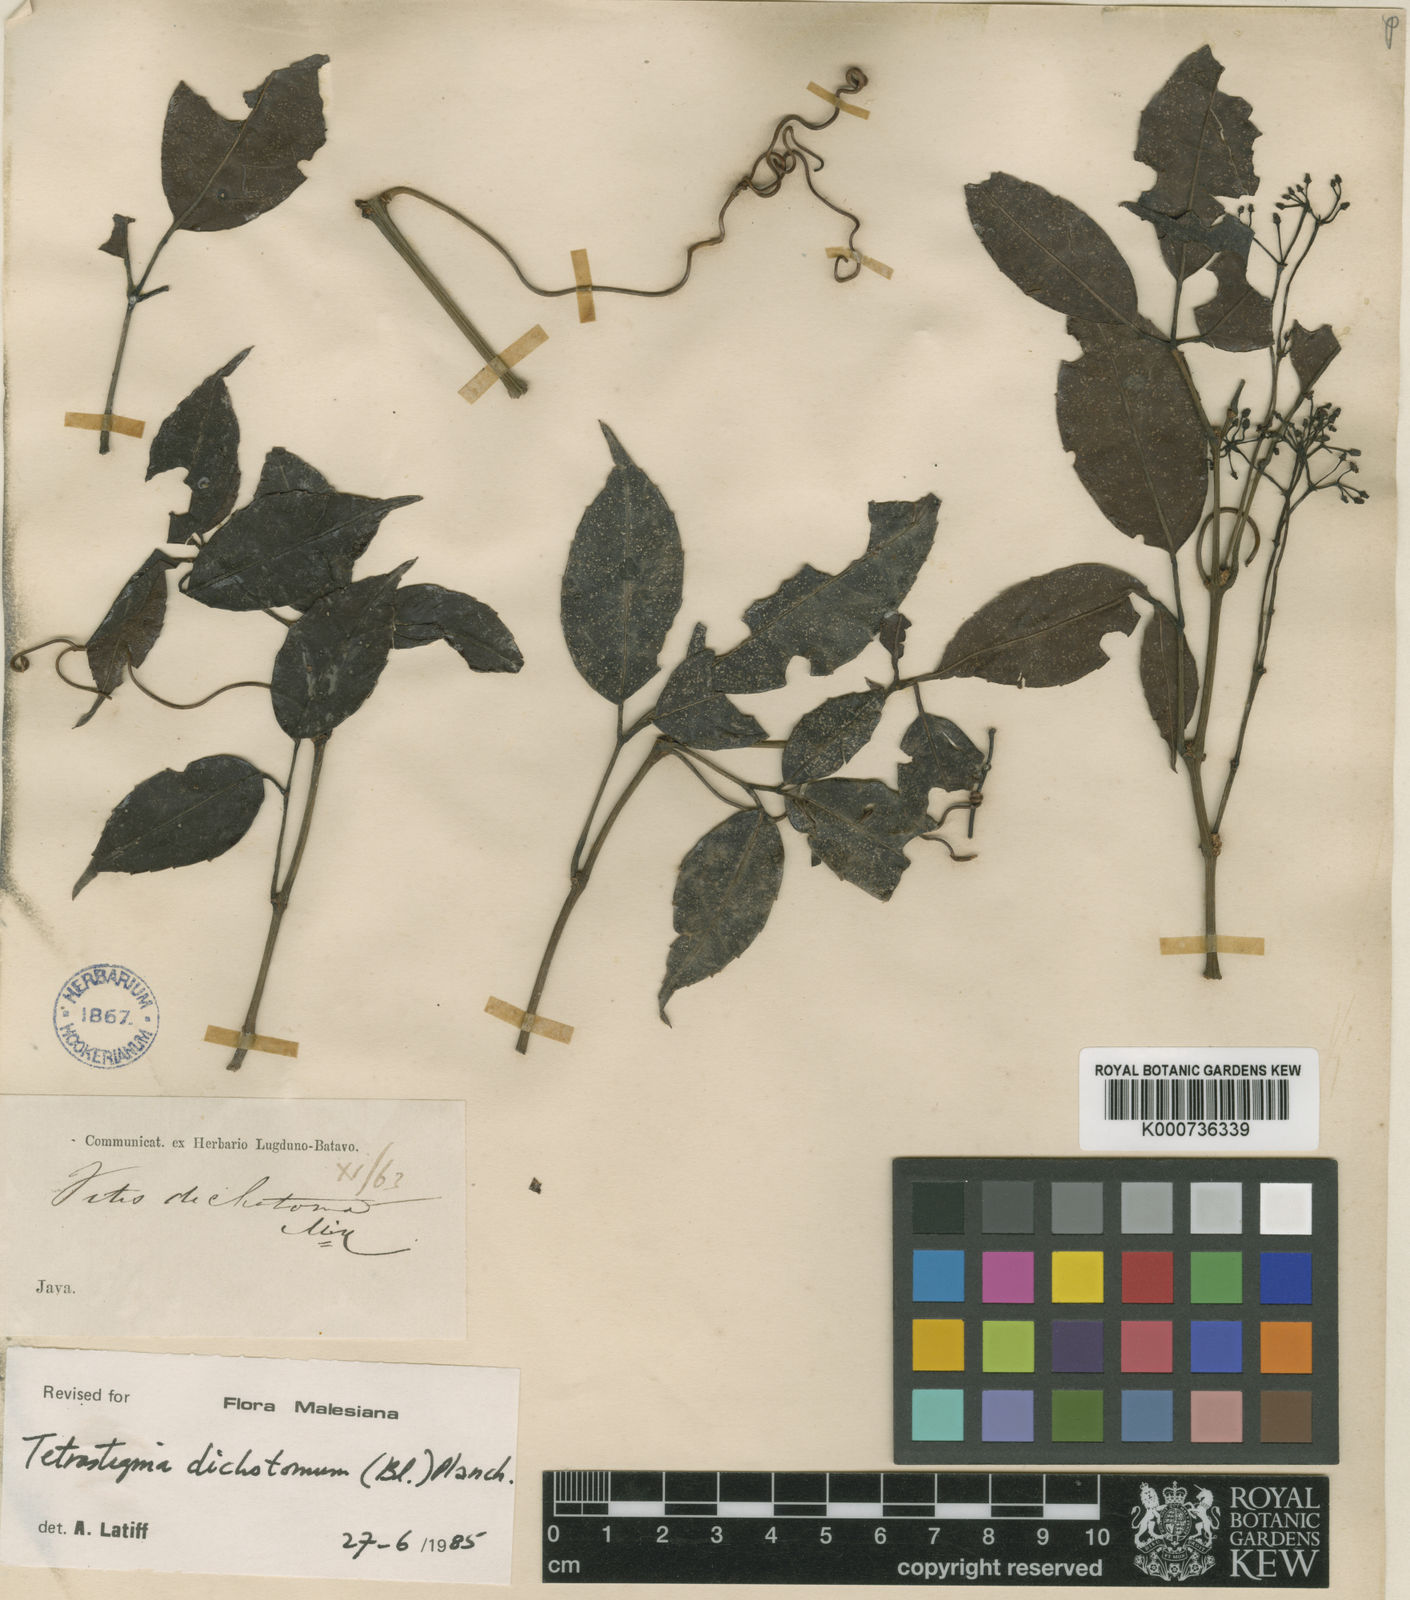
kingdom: Plantae
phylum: Tracheophyta
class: Magnoliopsida
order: Vitales
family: Vitaceae
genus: Tetrastigma
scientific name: Tetrastigma dichotomum
